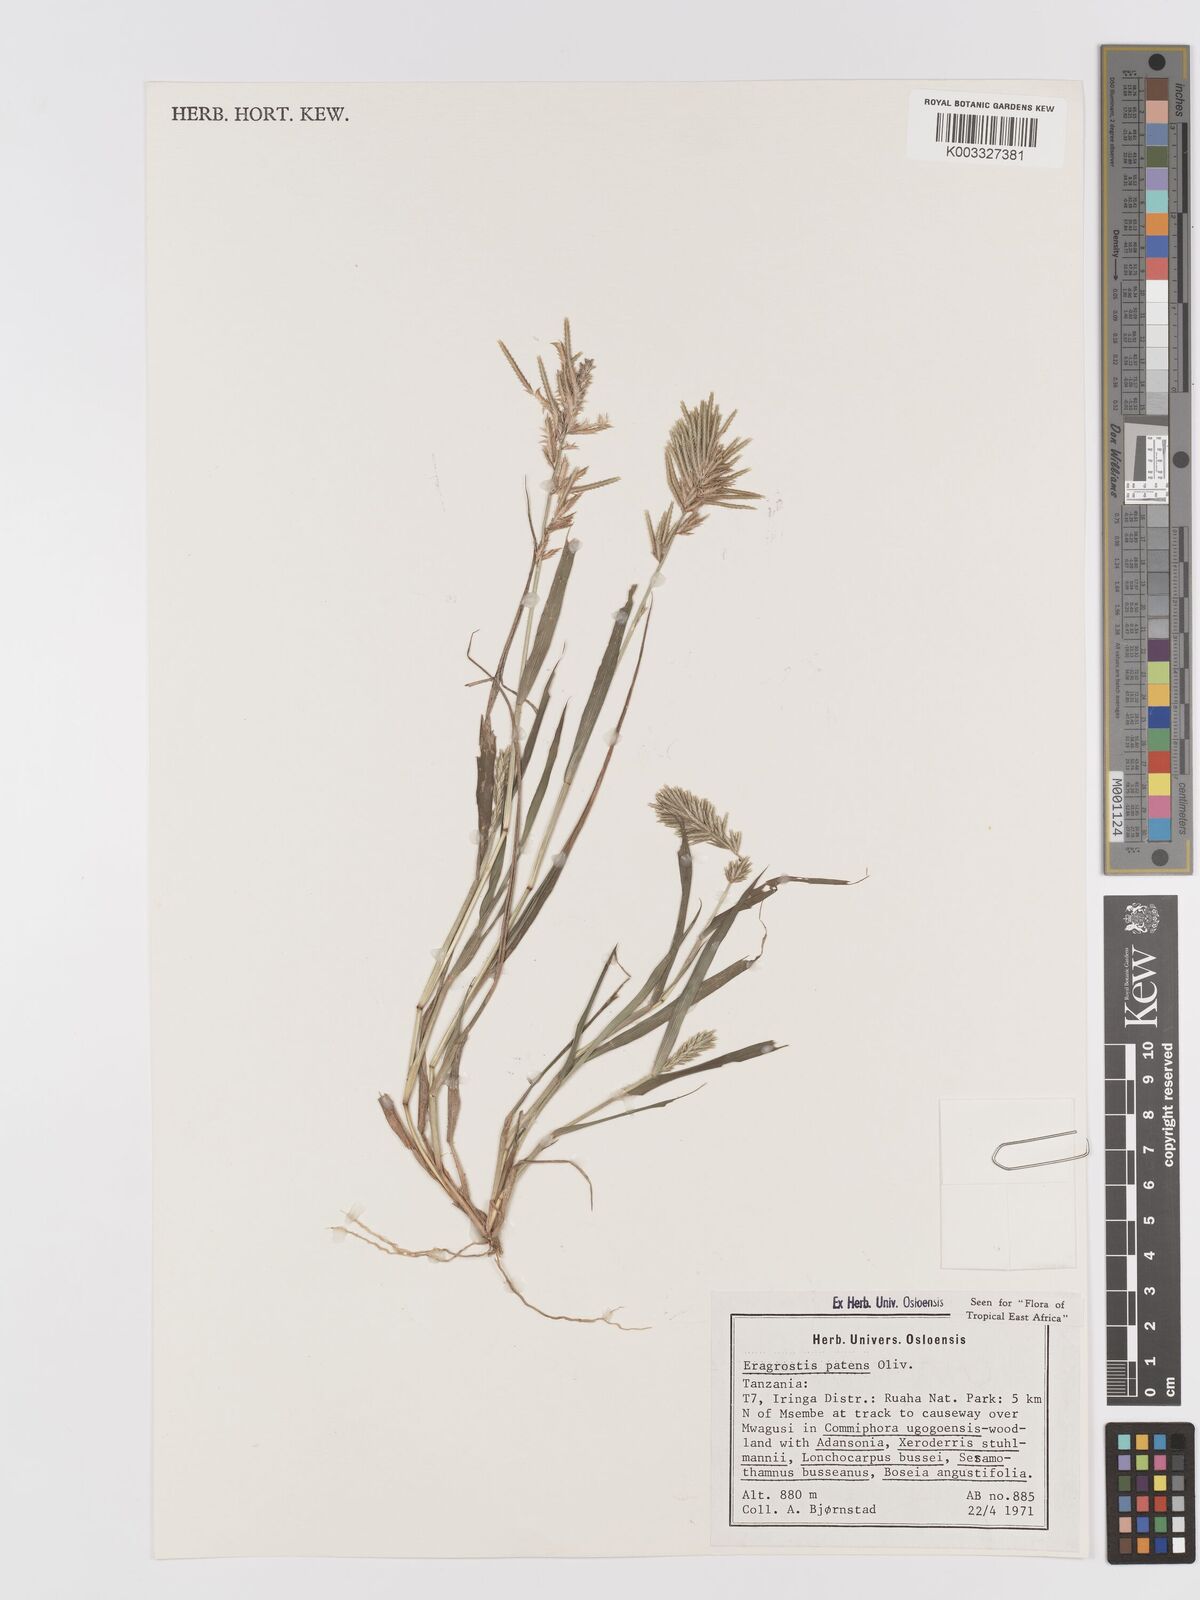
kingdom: Plantae
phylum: Tracheophyta
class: Liliopsida
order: Poales
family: Poaceae
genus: Eragrostis
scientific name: Eragrostis patens
